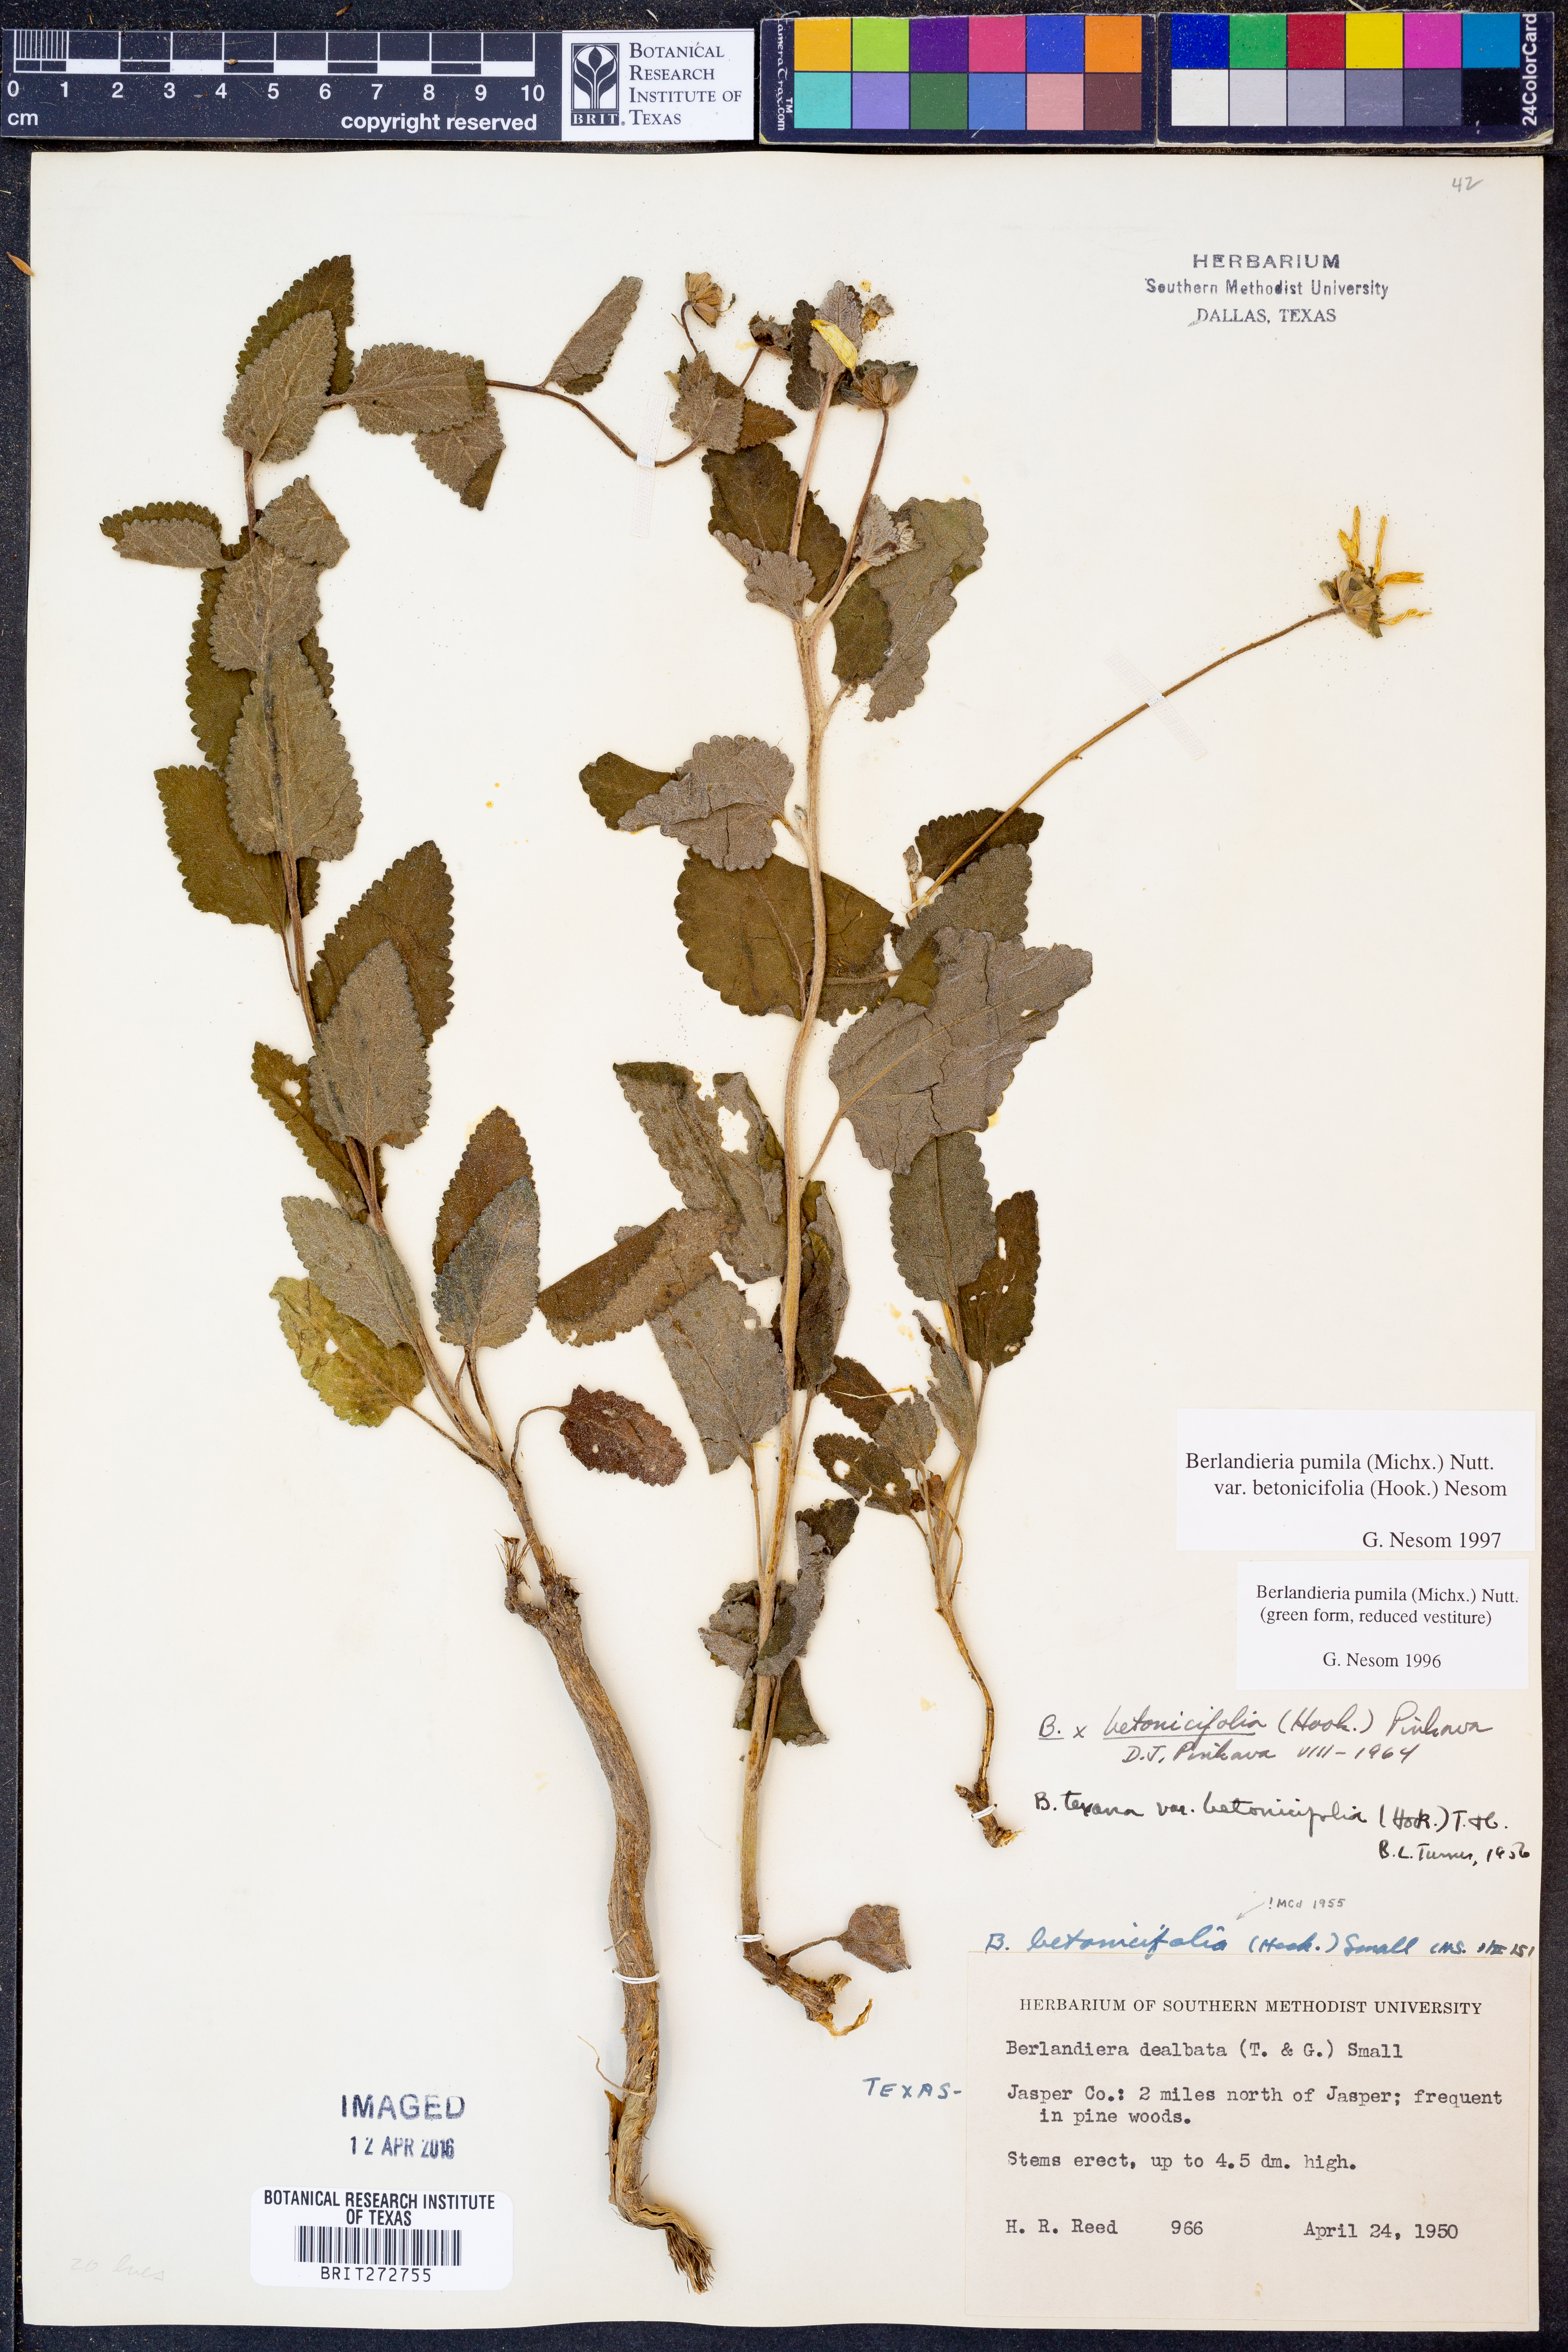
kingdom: Plantae
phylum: Tracheophyta
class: Magnoliopsida
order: Asterales
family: Asteraceae
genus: Berlandiera
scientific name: Berlandiera pumila
